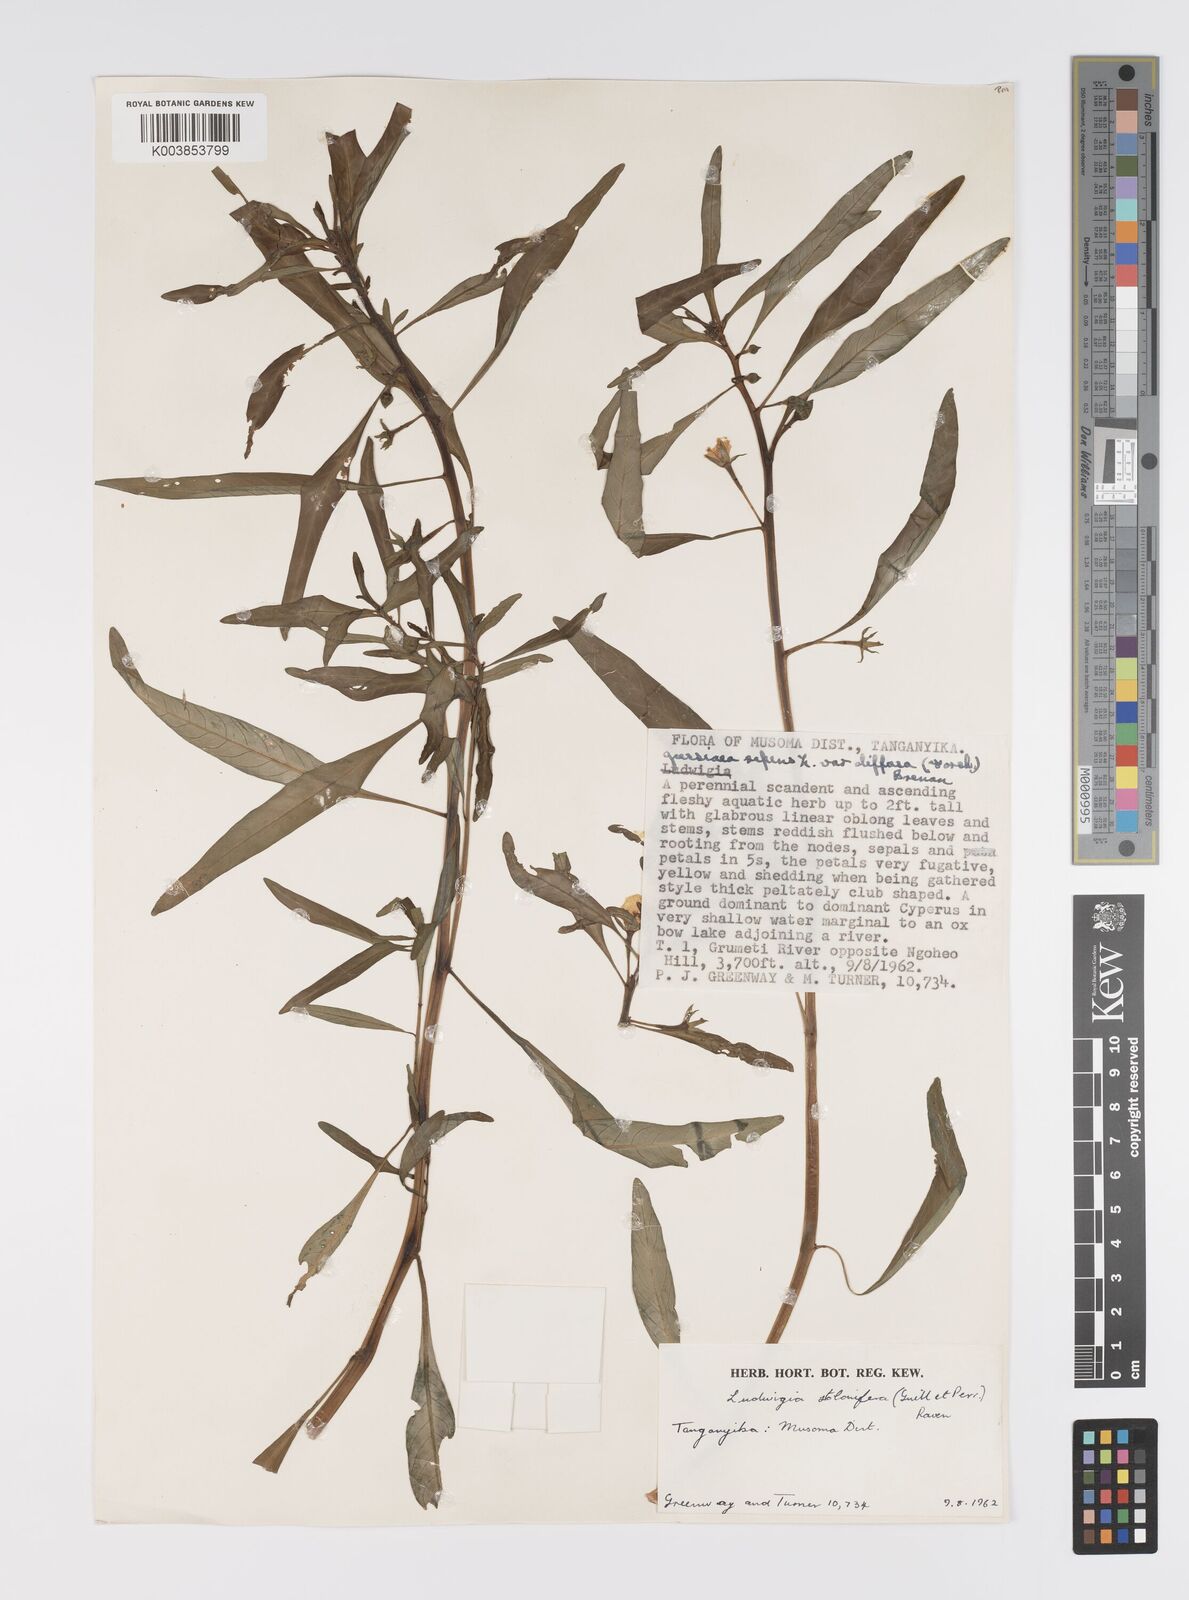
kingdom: Plantae
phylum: Tracheophyta
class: Magnoliopsida
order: Myrtales
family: Onagraceae
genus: Ludwigia
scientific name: Ludwigia adscendens
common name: Creeping water primrose
